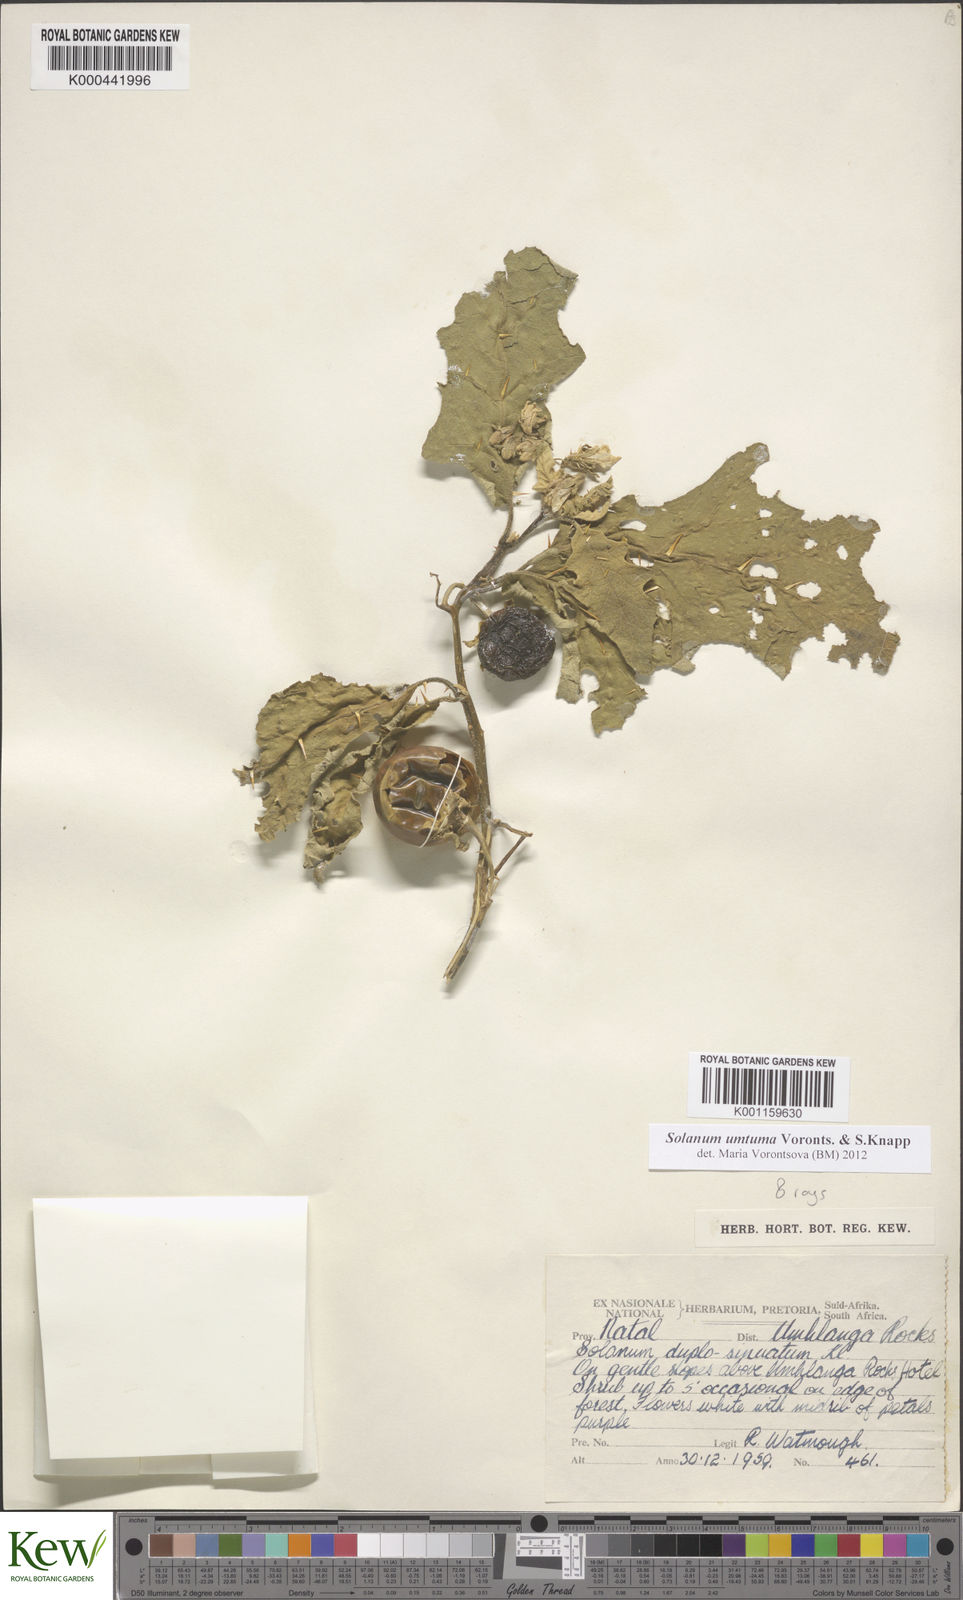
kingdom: Plantae
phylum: Tracheophyta
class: Magnoliopsida
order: Solanales
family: Solanaceae
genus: Solanum
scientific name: Solanum umtuma
